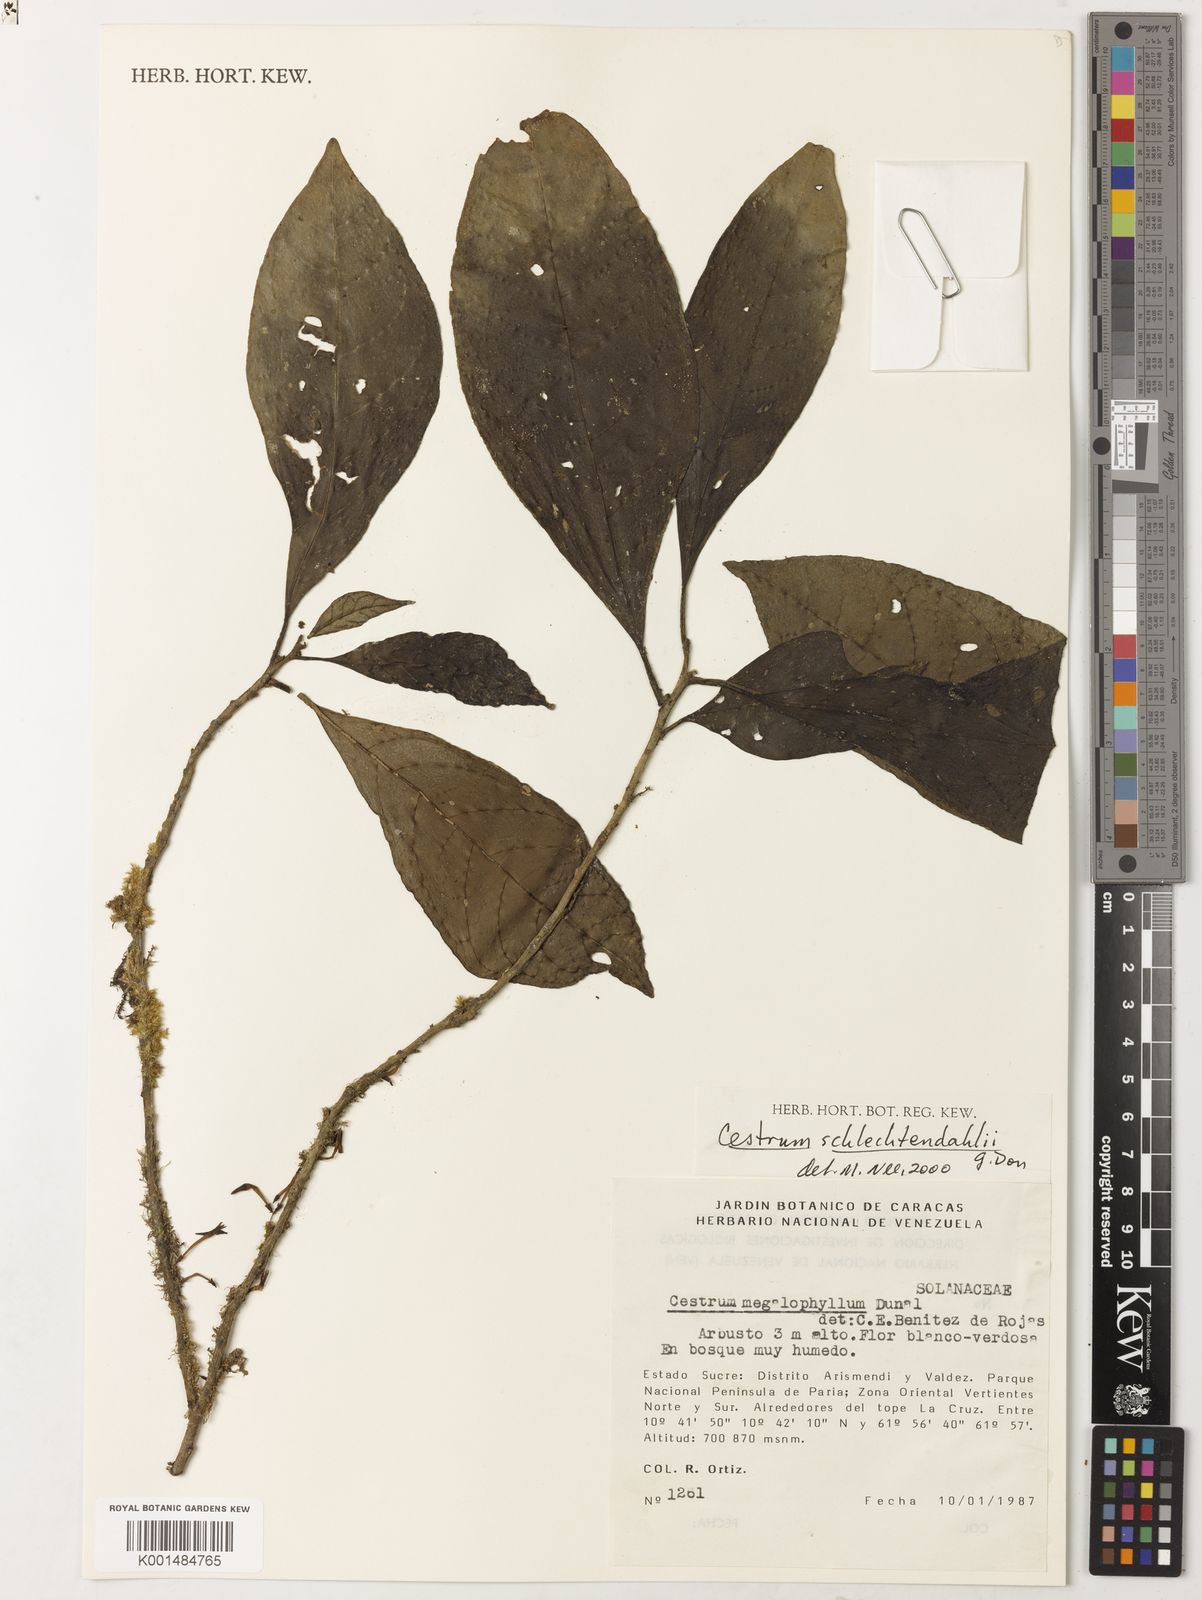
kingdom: Plantae
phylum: Tracheophyta
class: Magnoliopsida
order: Solanales
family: Solanaceae
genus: Cestrum
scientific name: Cestrum megalophyllum
